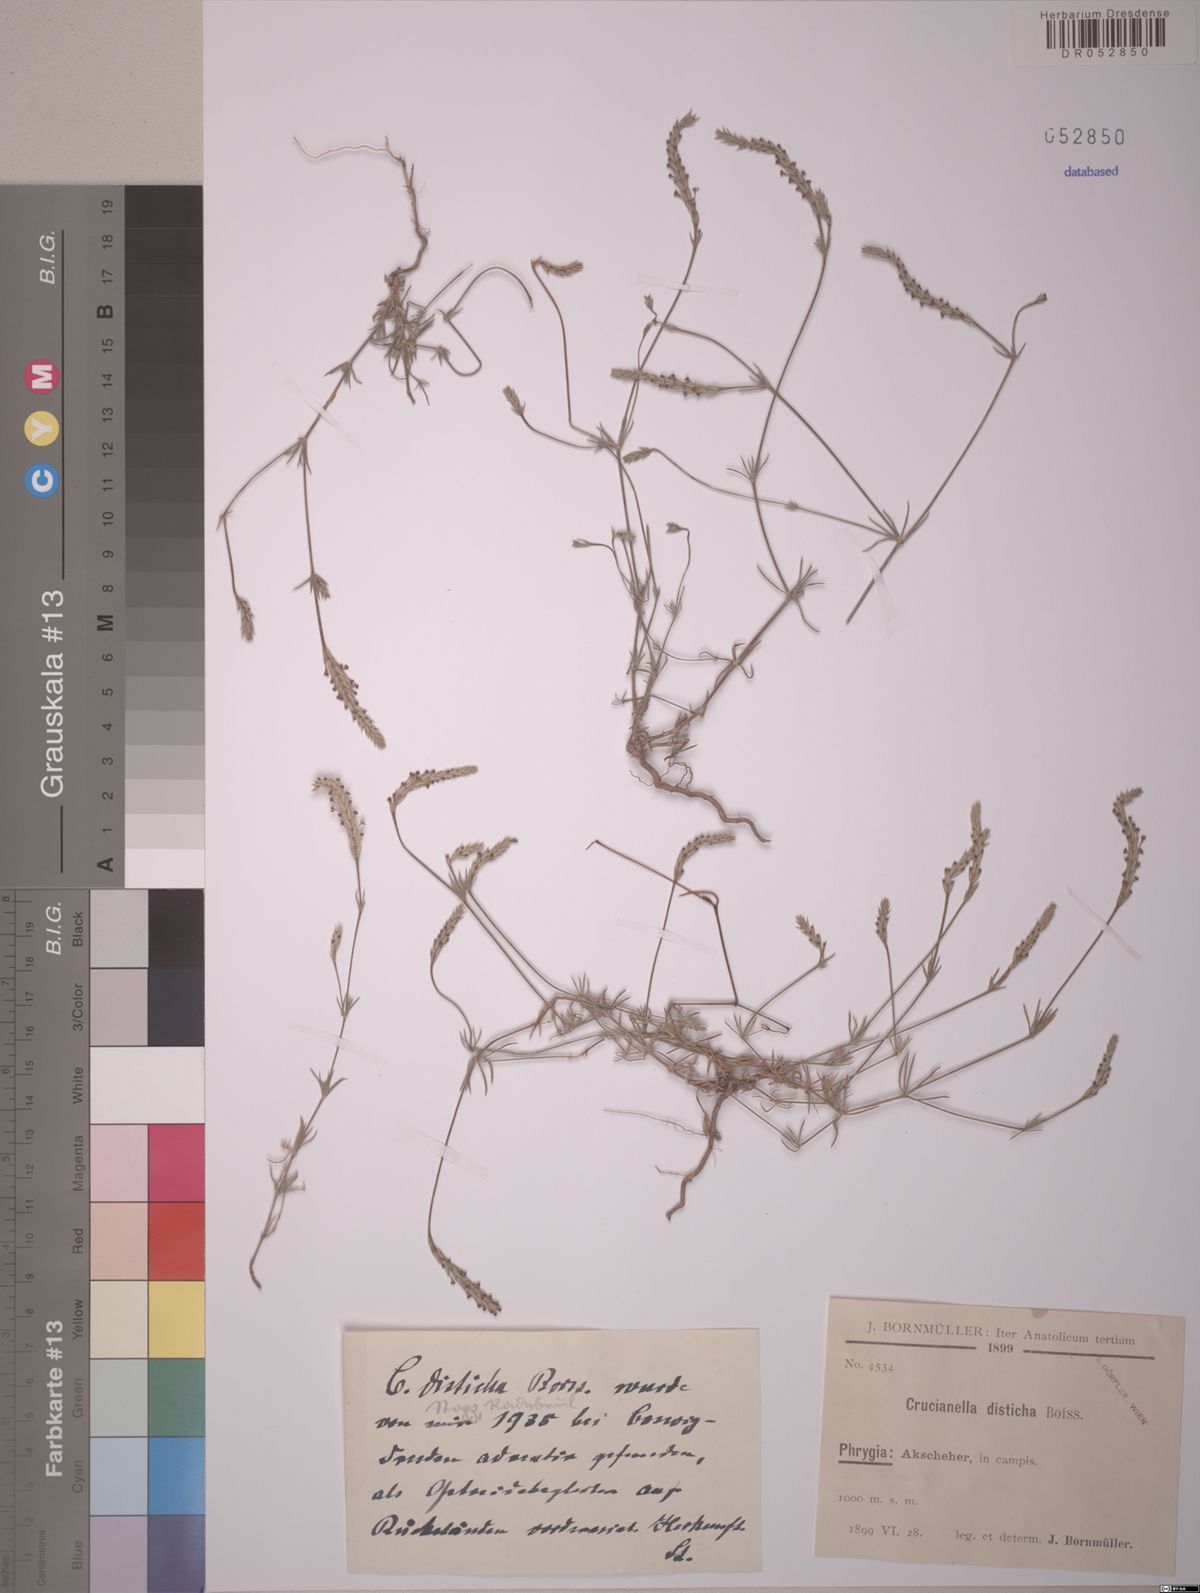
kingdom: Plantae
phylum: Tracheophyta
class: Magnoliopsida
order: Gentianales
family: Rubiaceae
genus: Crucianella
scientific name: Crucianella disticha
